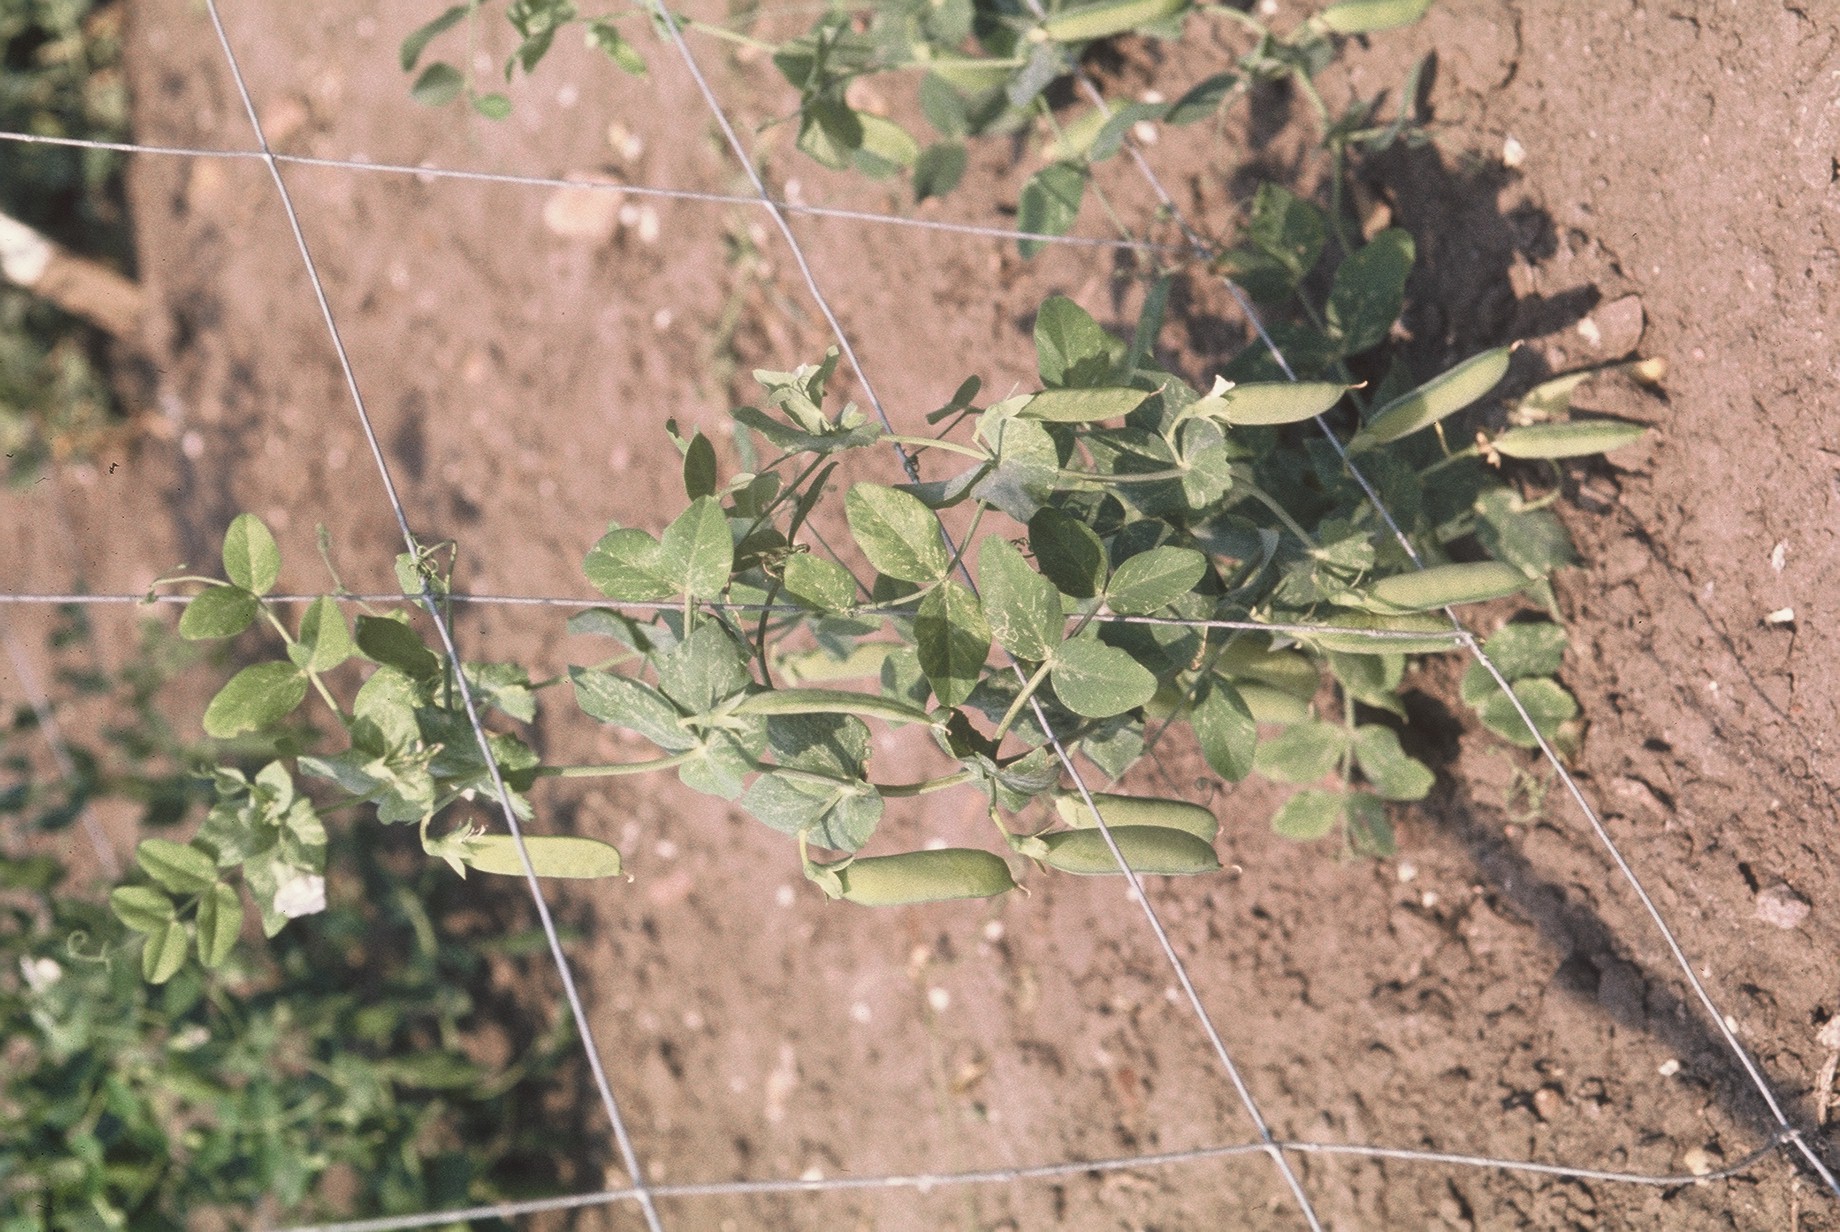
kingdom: Plantae
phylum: Tracheophyta
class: Magnoliopsida
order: Fabales
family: Fabaceae
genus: Lathyrus
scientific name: Lathyrus oleraceus
